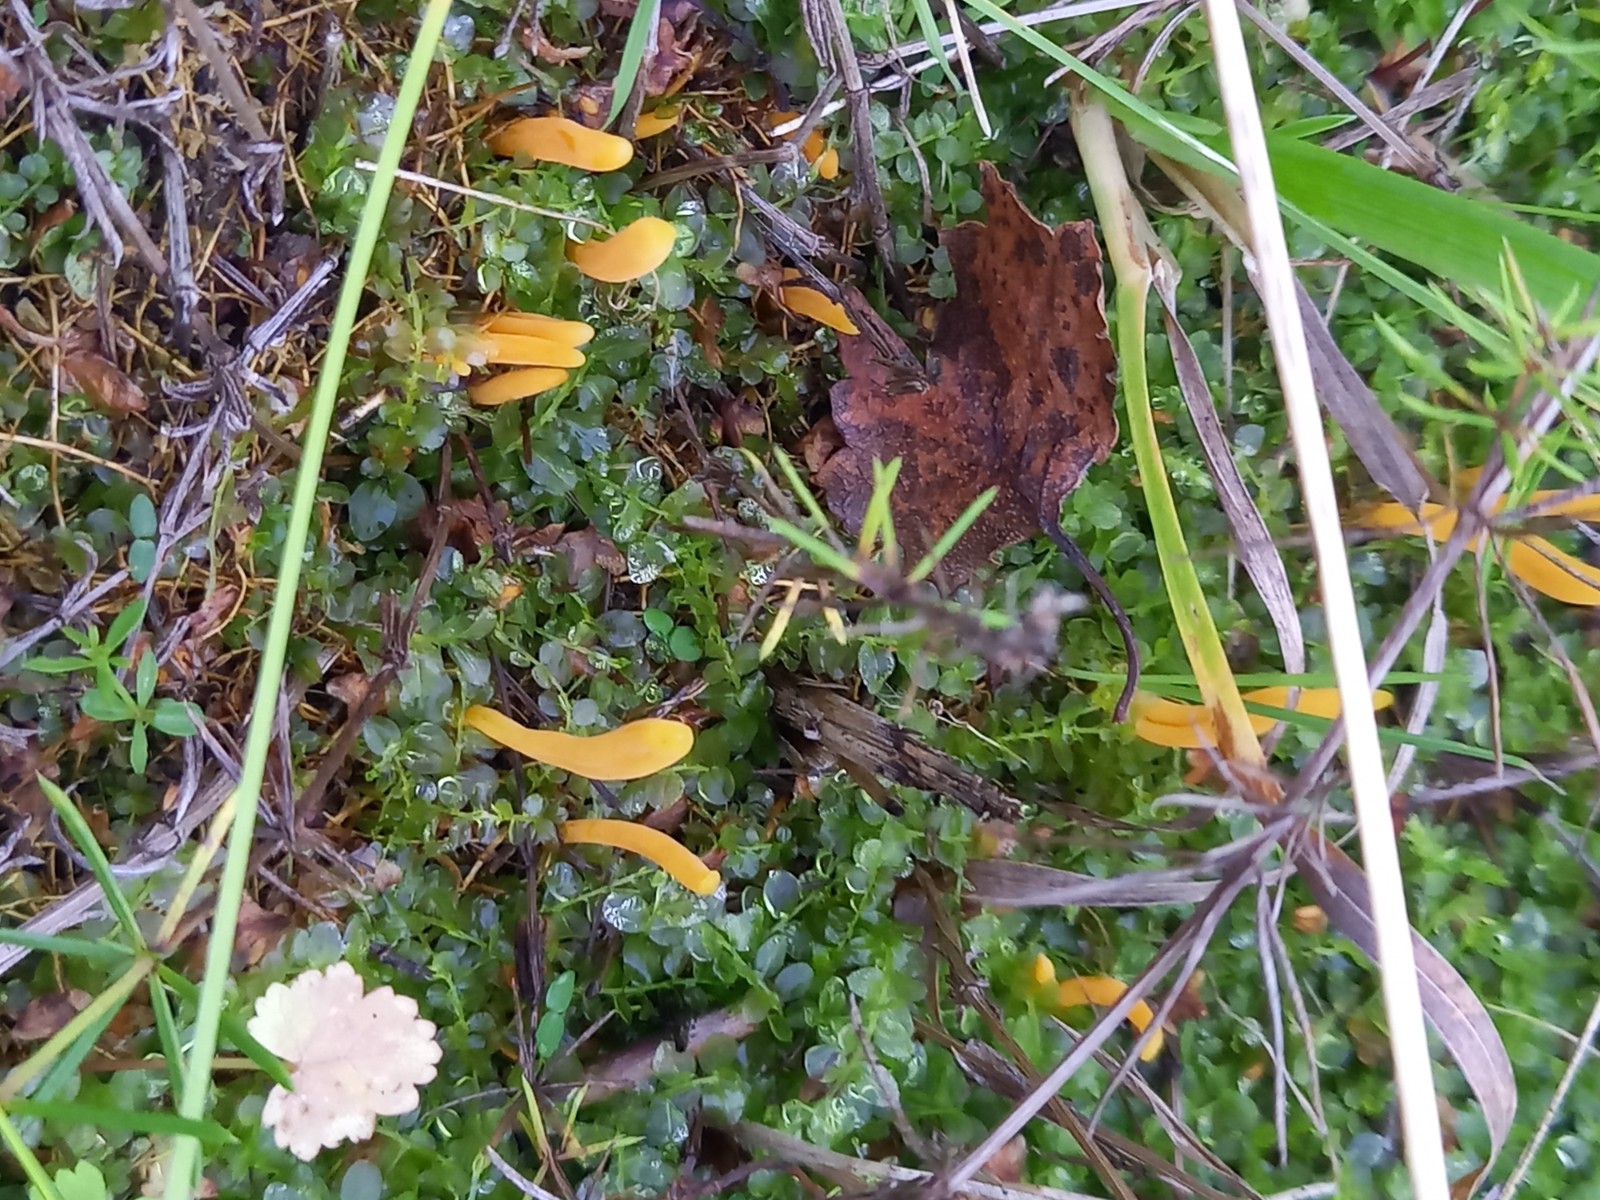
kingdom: Fungi
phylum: Basidiomycota
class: Agaricomycetes
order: Agaricales
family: Clavariaceae
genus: Clavulinopsis
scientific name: Clavulinopsis laeticolor
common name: flamme-køllesvamp
